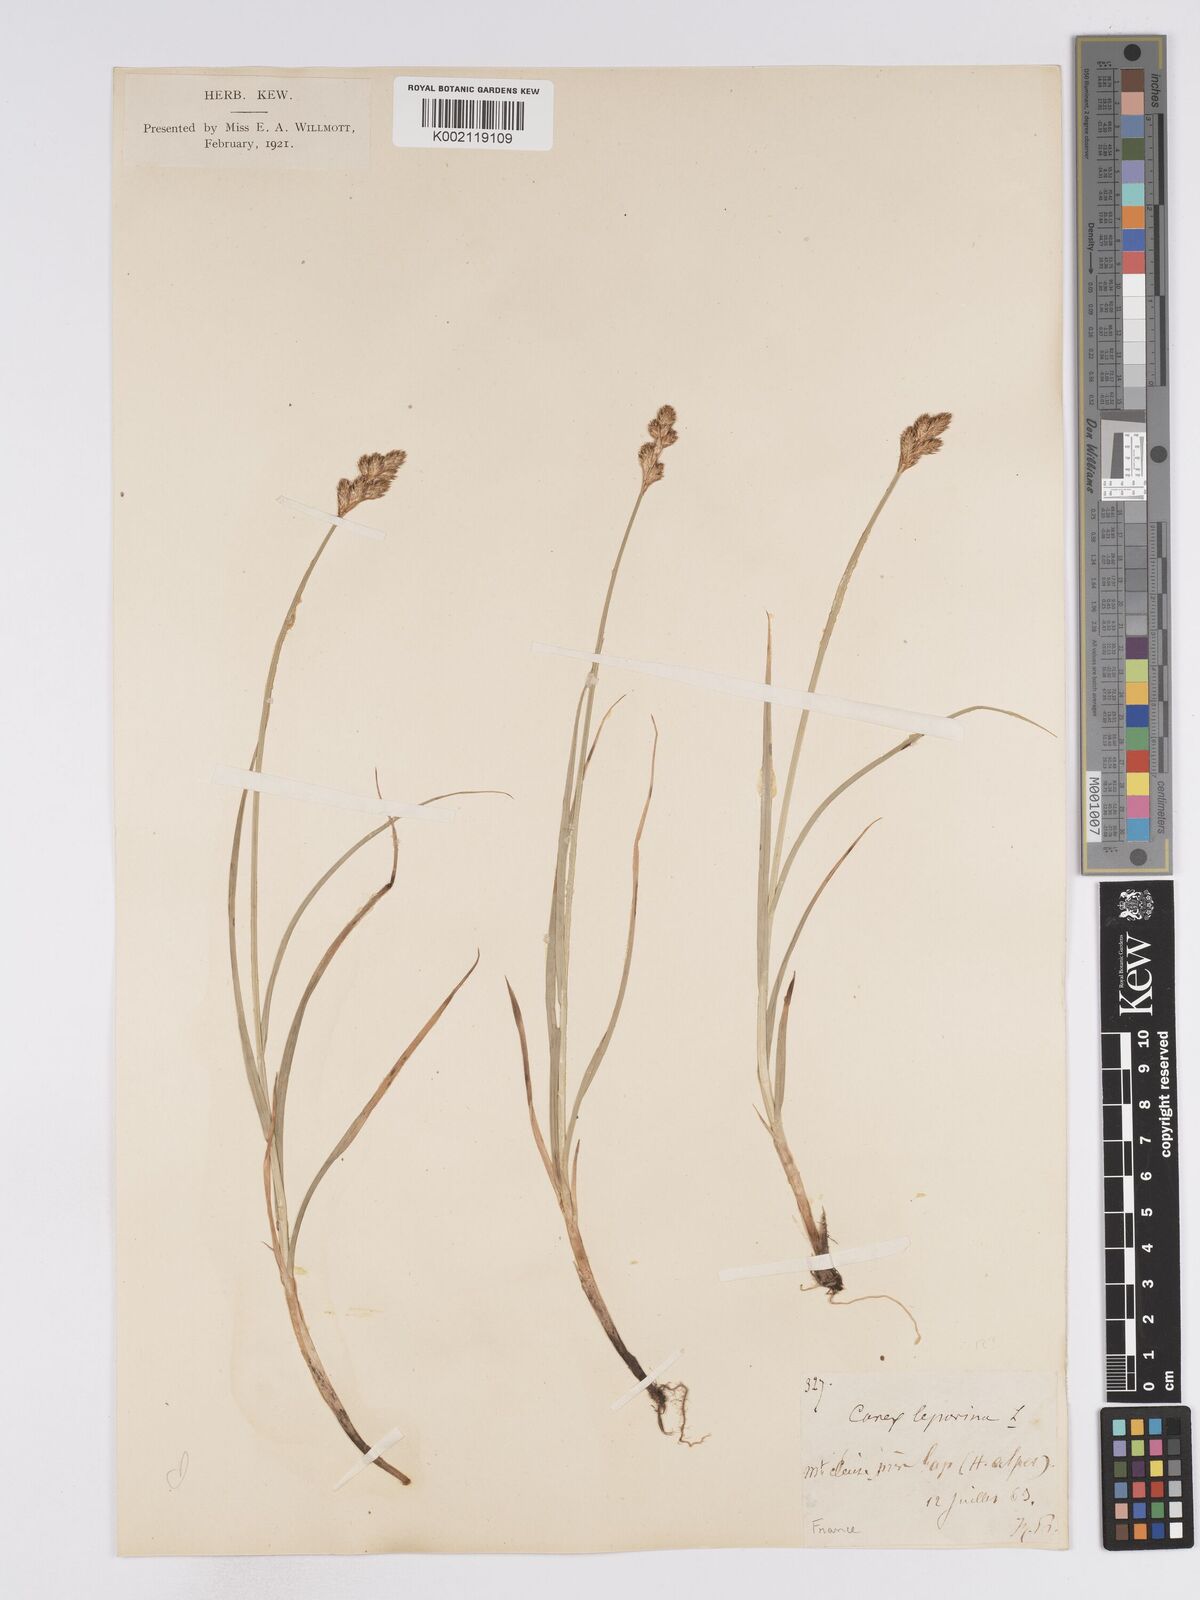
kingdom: Plantae
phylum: Tracheophyta
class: Liliopsida
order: Poales
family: Cyperaceae
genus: Carex
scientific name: Carex leporina
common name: Oval sedge
